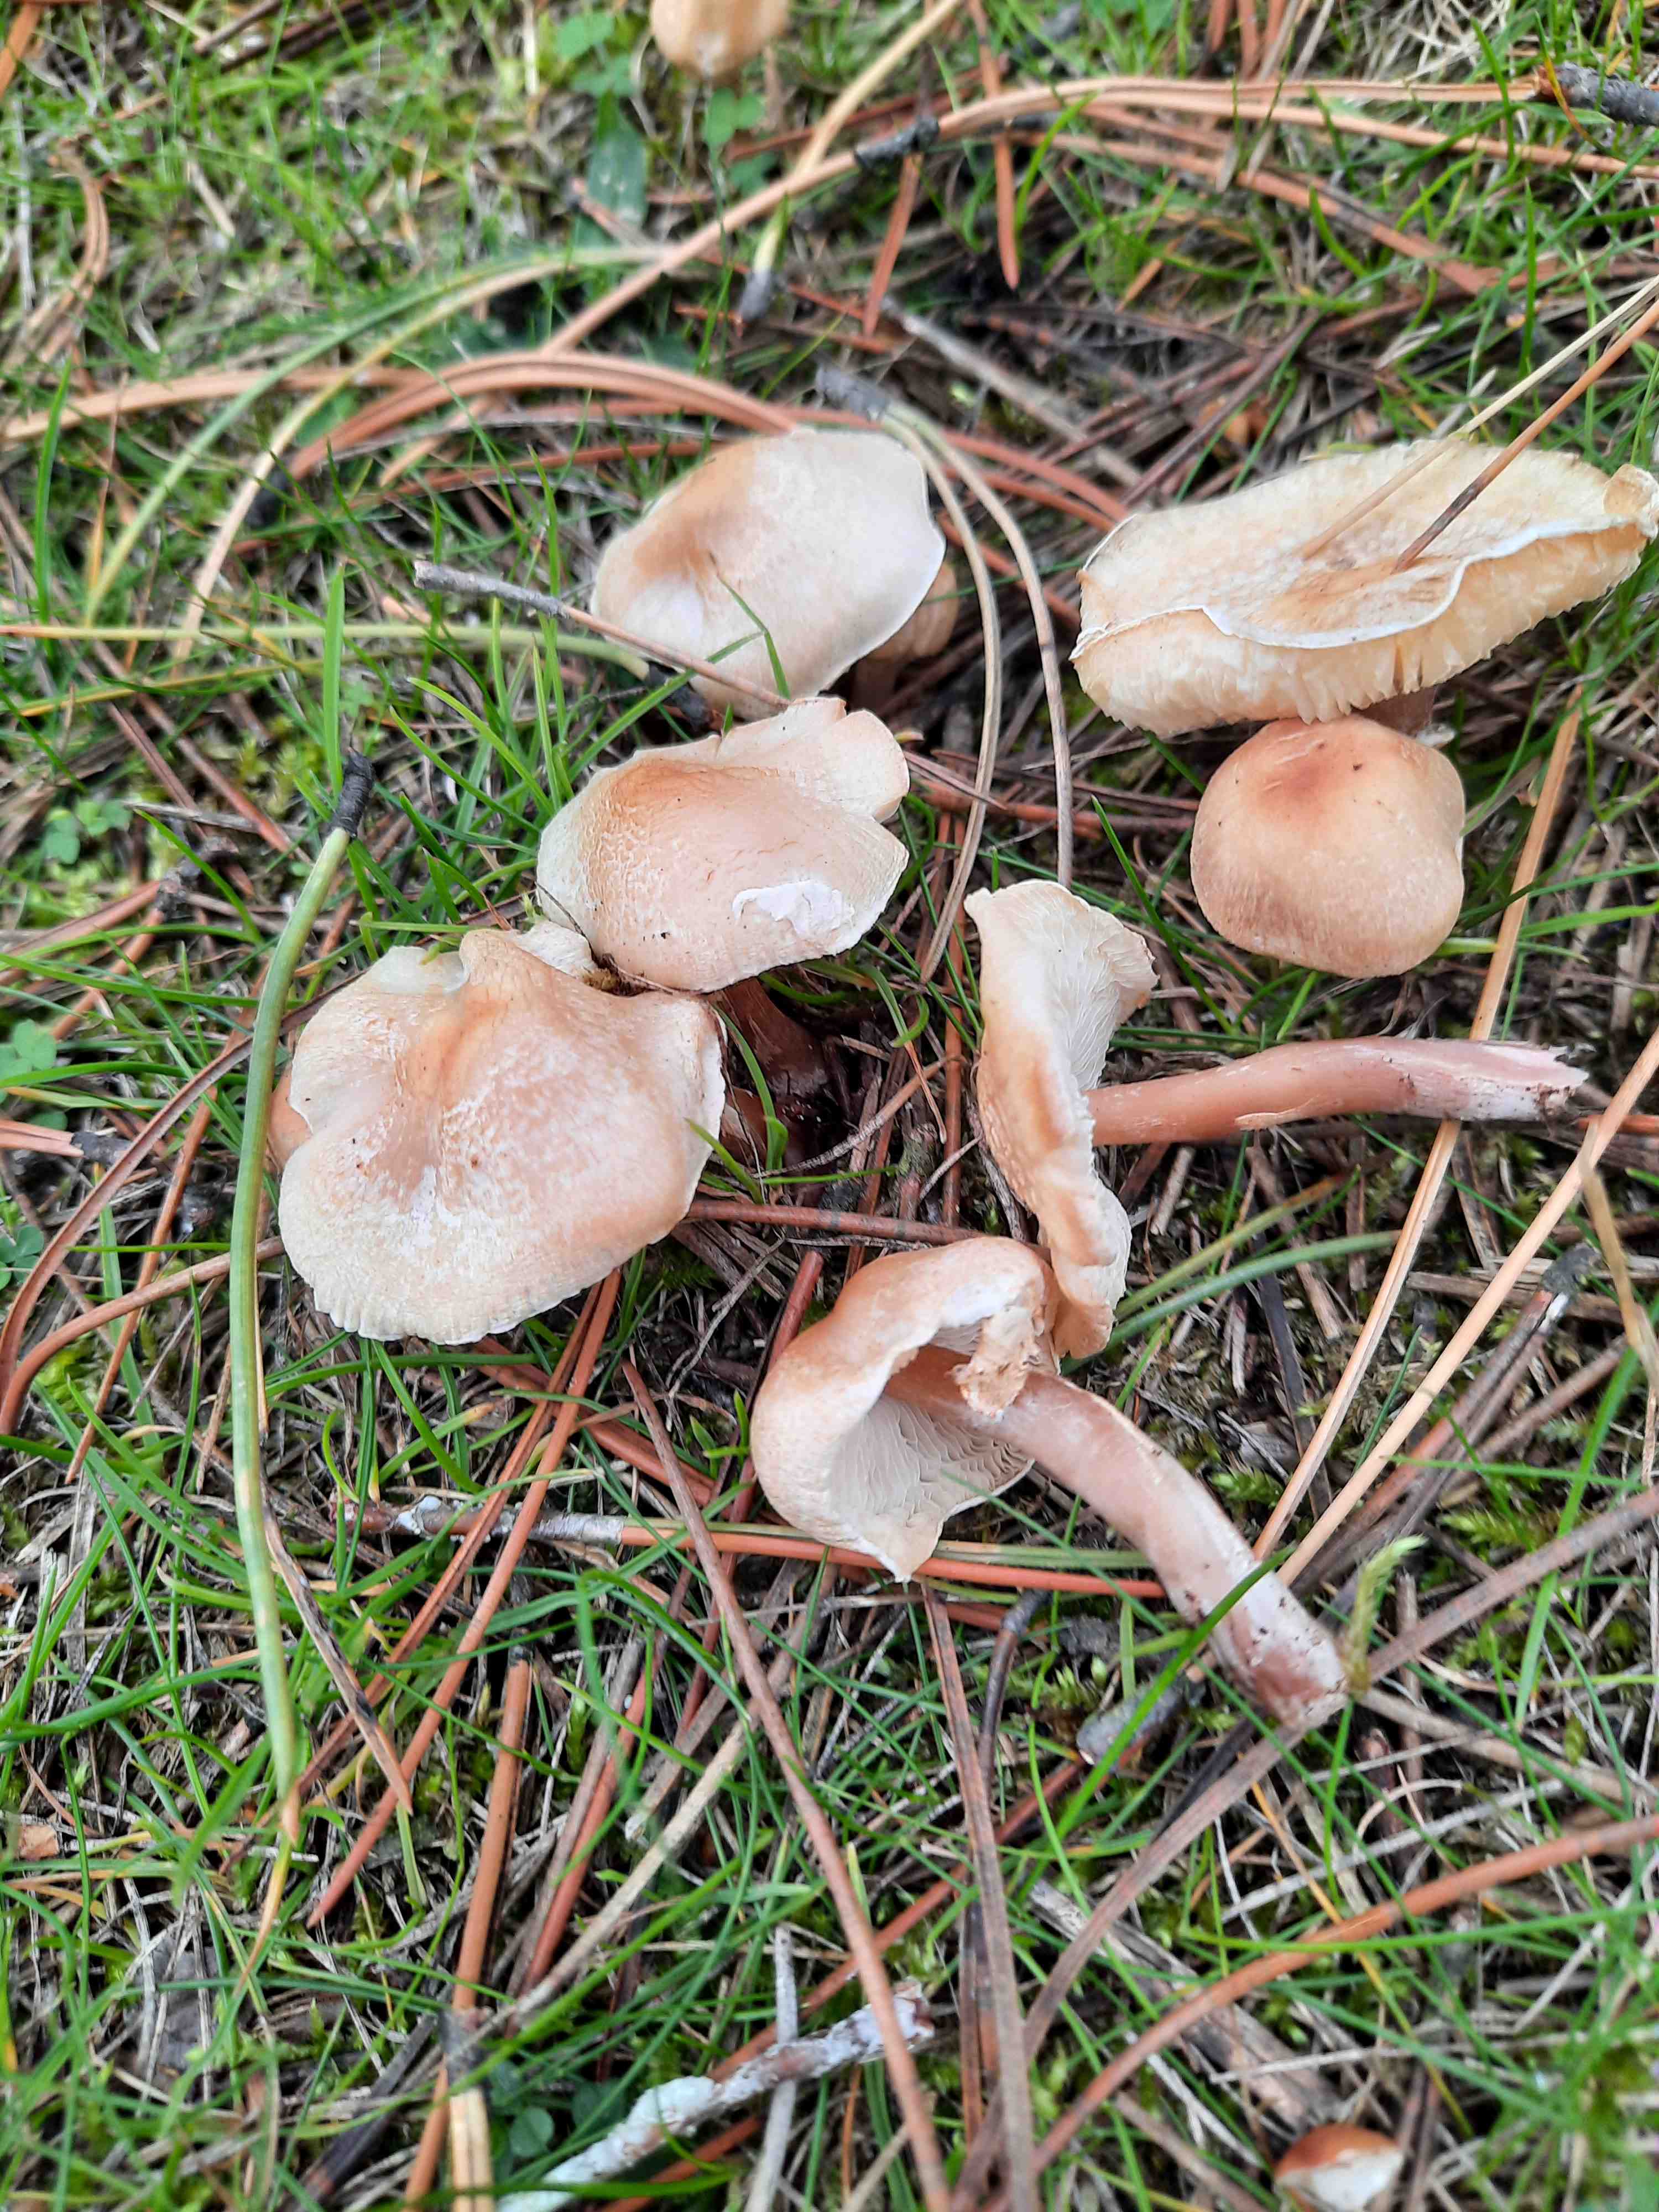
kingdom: Fungi
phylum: Basidiomycota
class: Agaricomycetes
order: Agaricales
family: Agaricaceae
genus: Lepiota
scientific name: Lepiota subincarnata
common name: kødfarvet parasolhat
